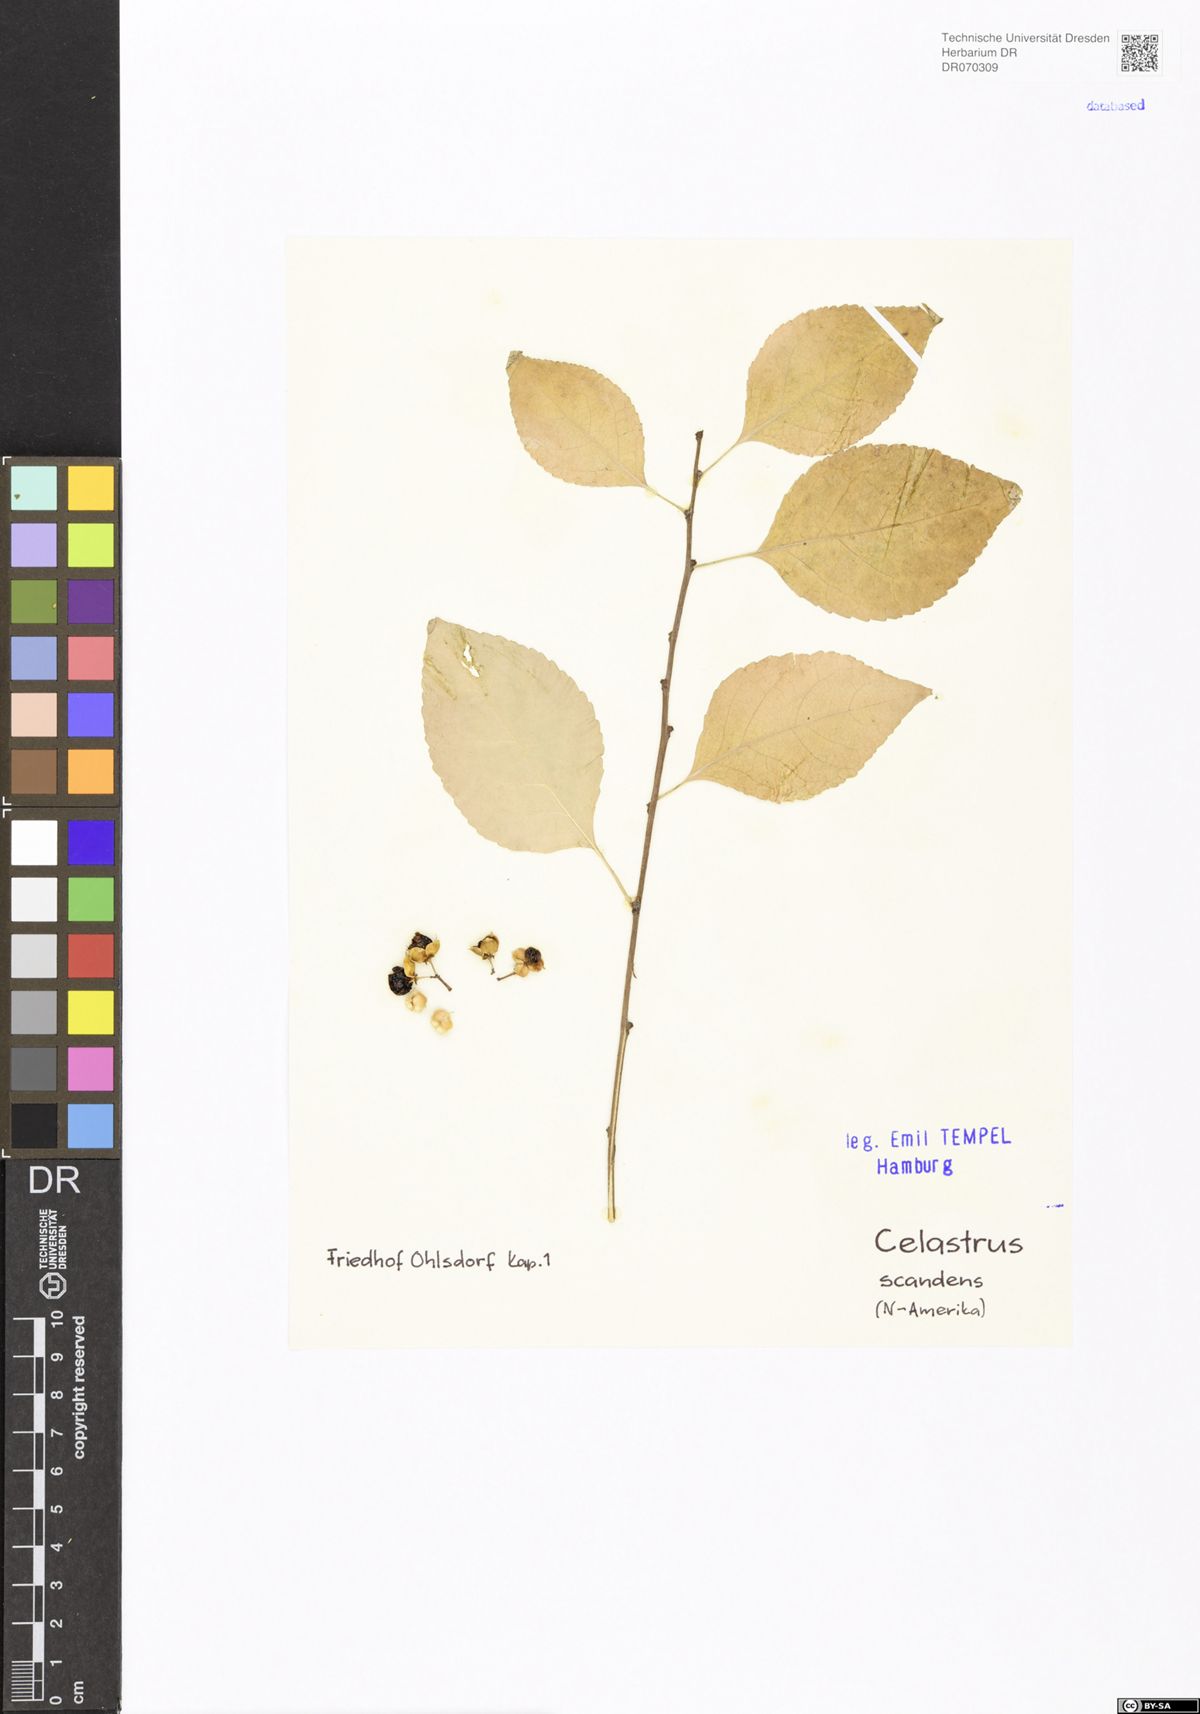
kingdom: Plantae
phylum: Tracheophyta
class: Magnoliopsida
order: Celastrales
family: Celastraceae
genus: Celastrus
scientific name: Celastrus scandens
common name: American bittersweet
